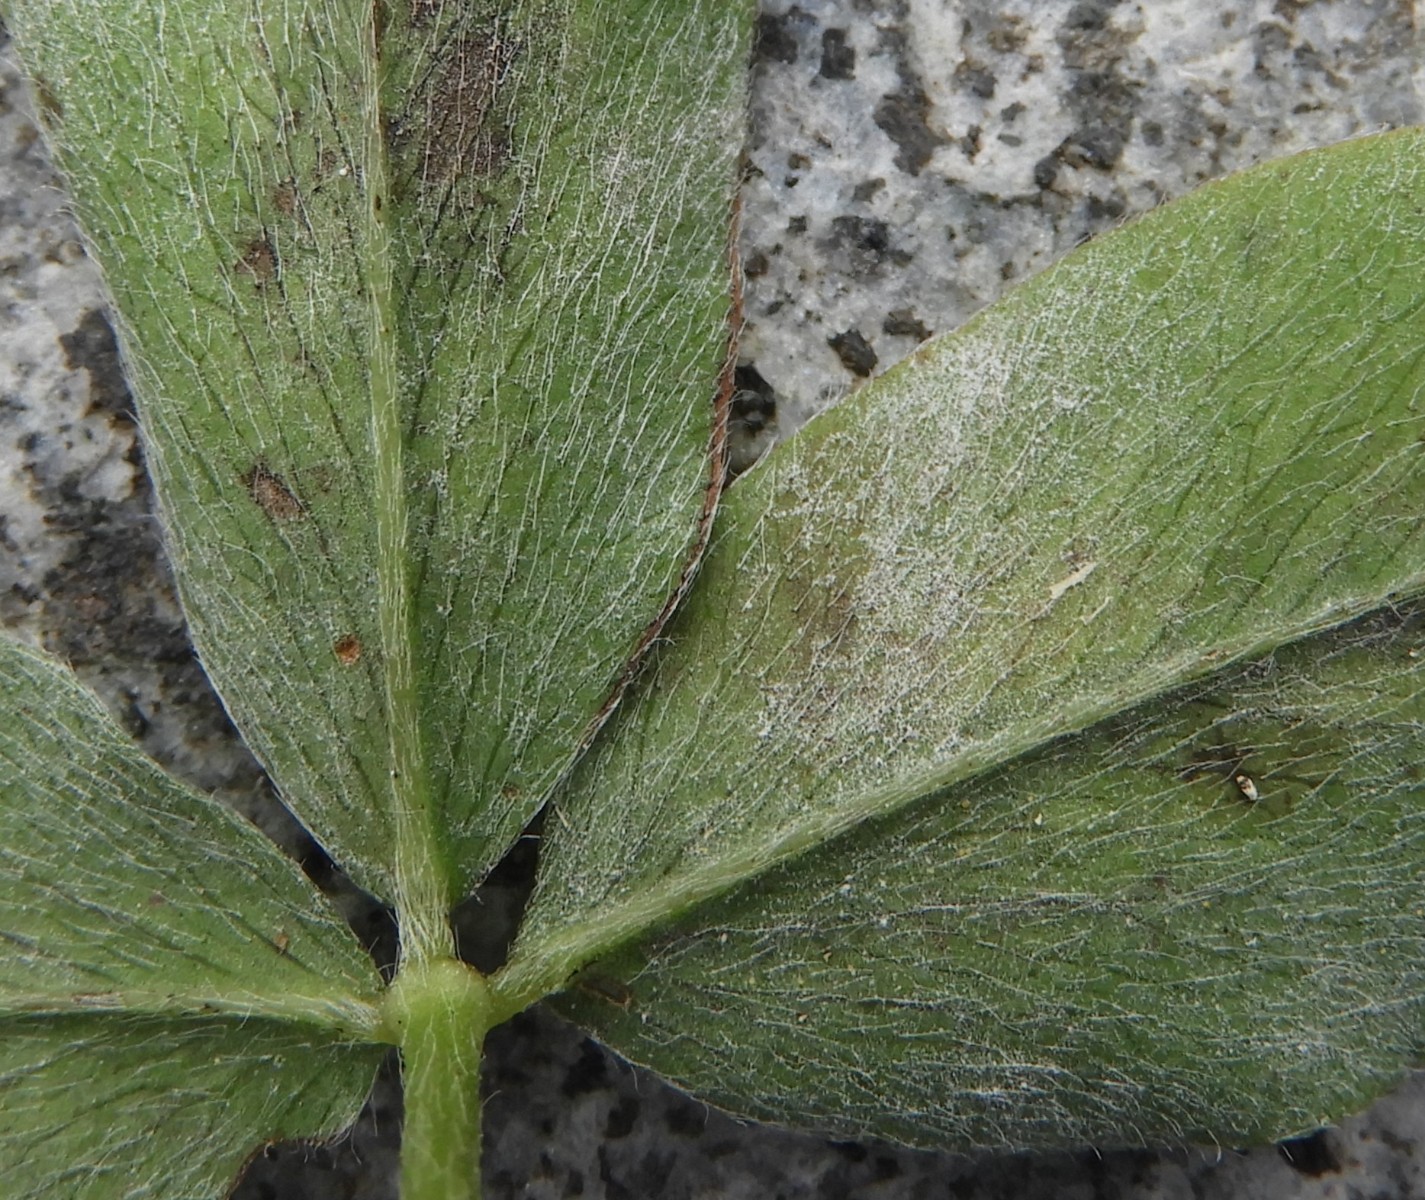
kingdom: Fungi
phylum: Ascomycota
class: Leotiomycetes
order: Helotiales
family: Erysiphaceae
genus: Erysiphe
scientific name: Erysiphe
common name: meldug
